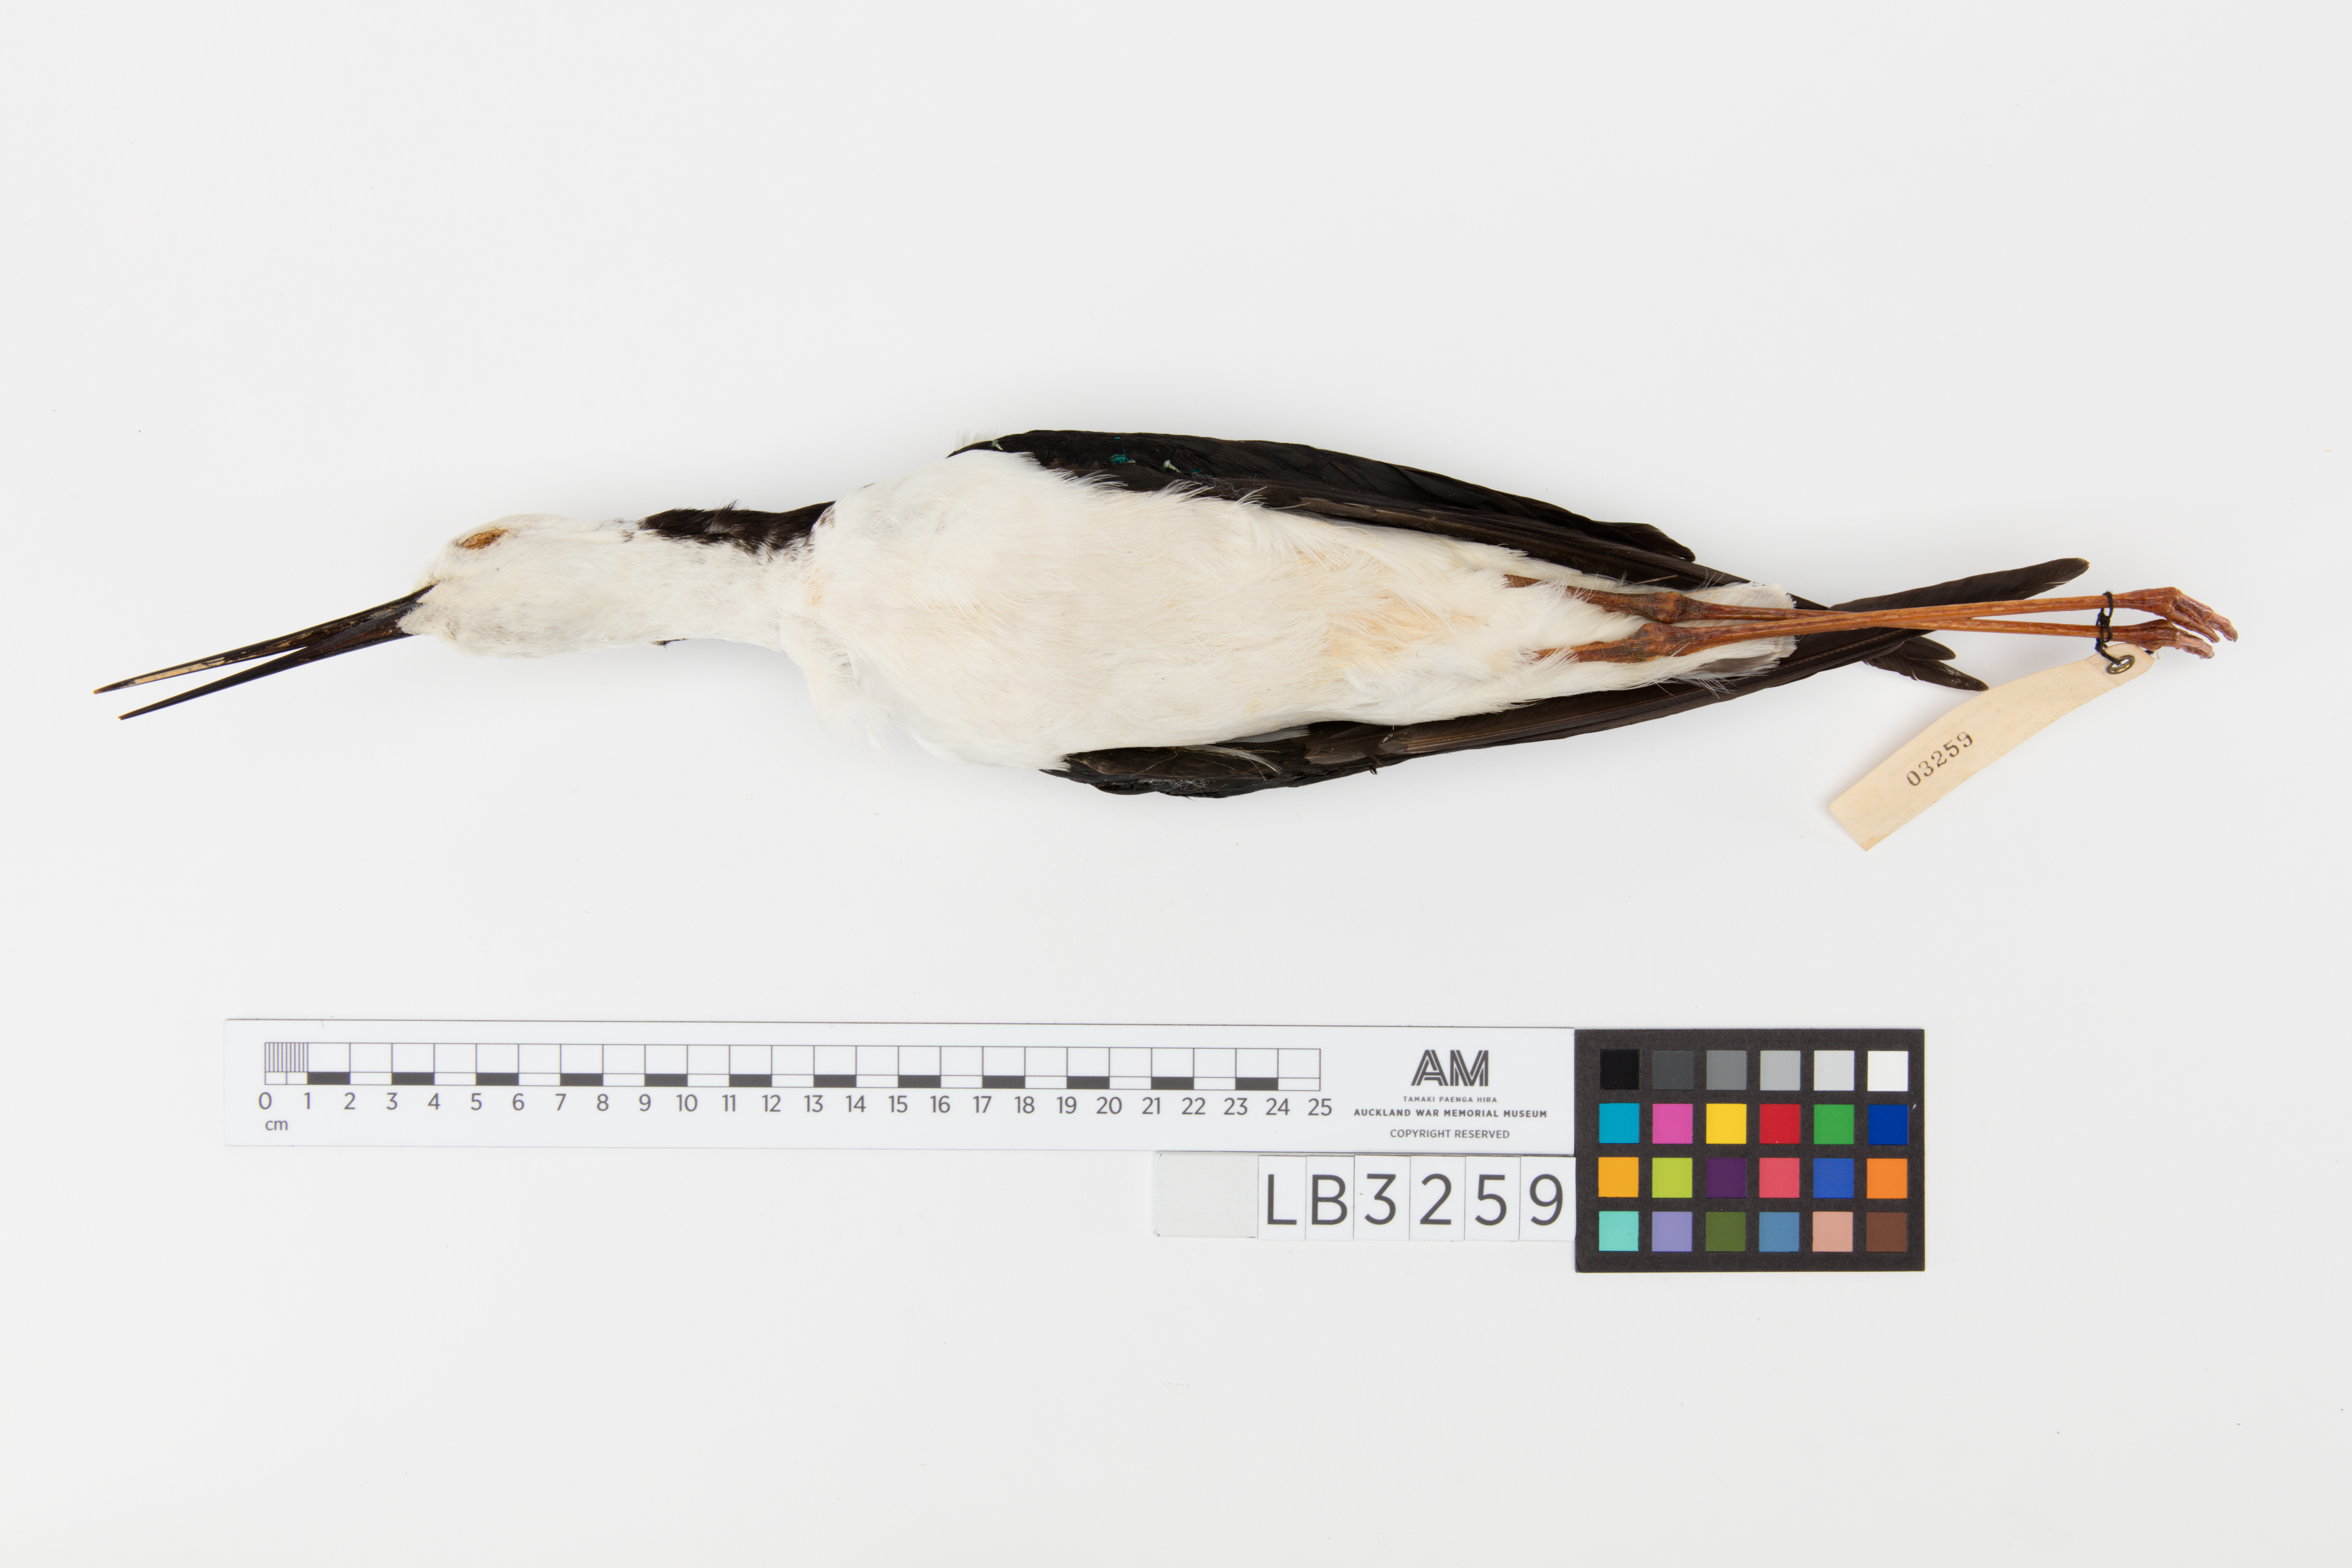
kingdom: Animalia
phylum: Chordata
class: Aves
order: Charadriiformes
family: Recurvirostridae
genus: Himantopus
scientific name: Himantopus himantopus
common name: Black-winged stilt
